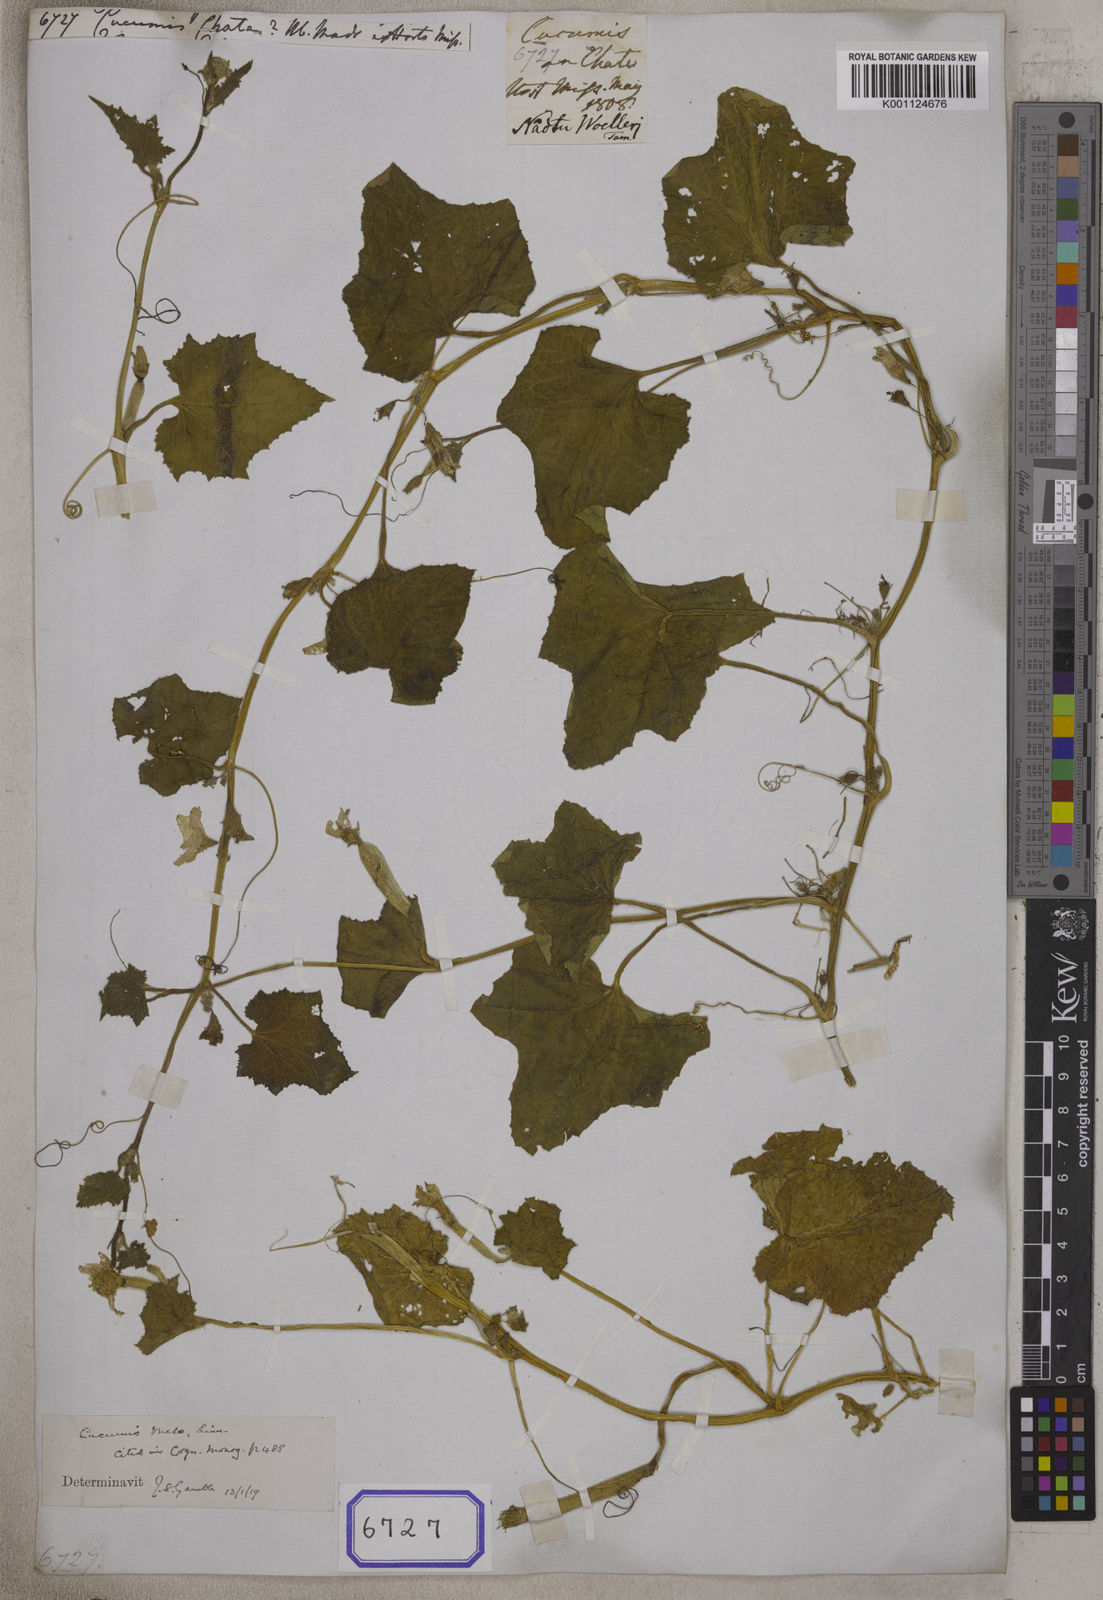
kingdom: Plantae
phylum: Tracheophyta
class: Magnoliopsida
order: Cucurbitales
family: Cucurbitaceae
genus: Cucumis
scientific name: Cucumis
